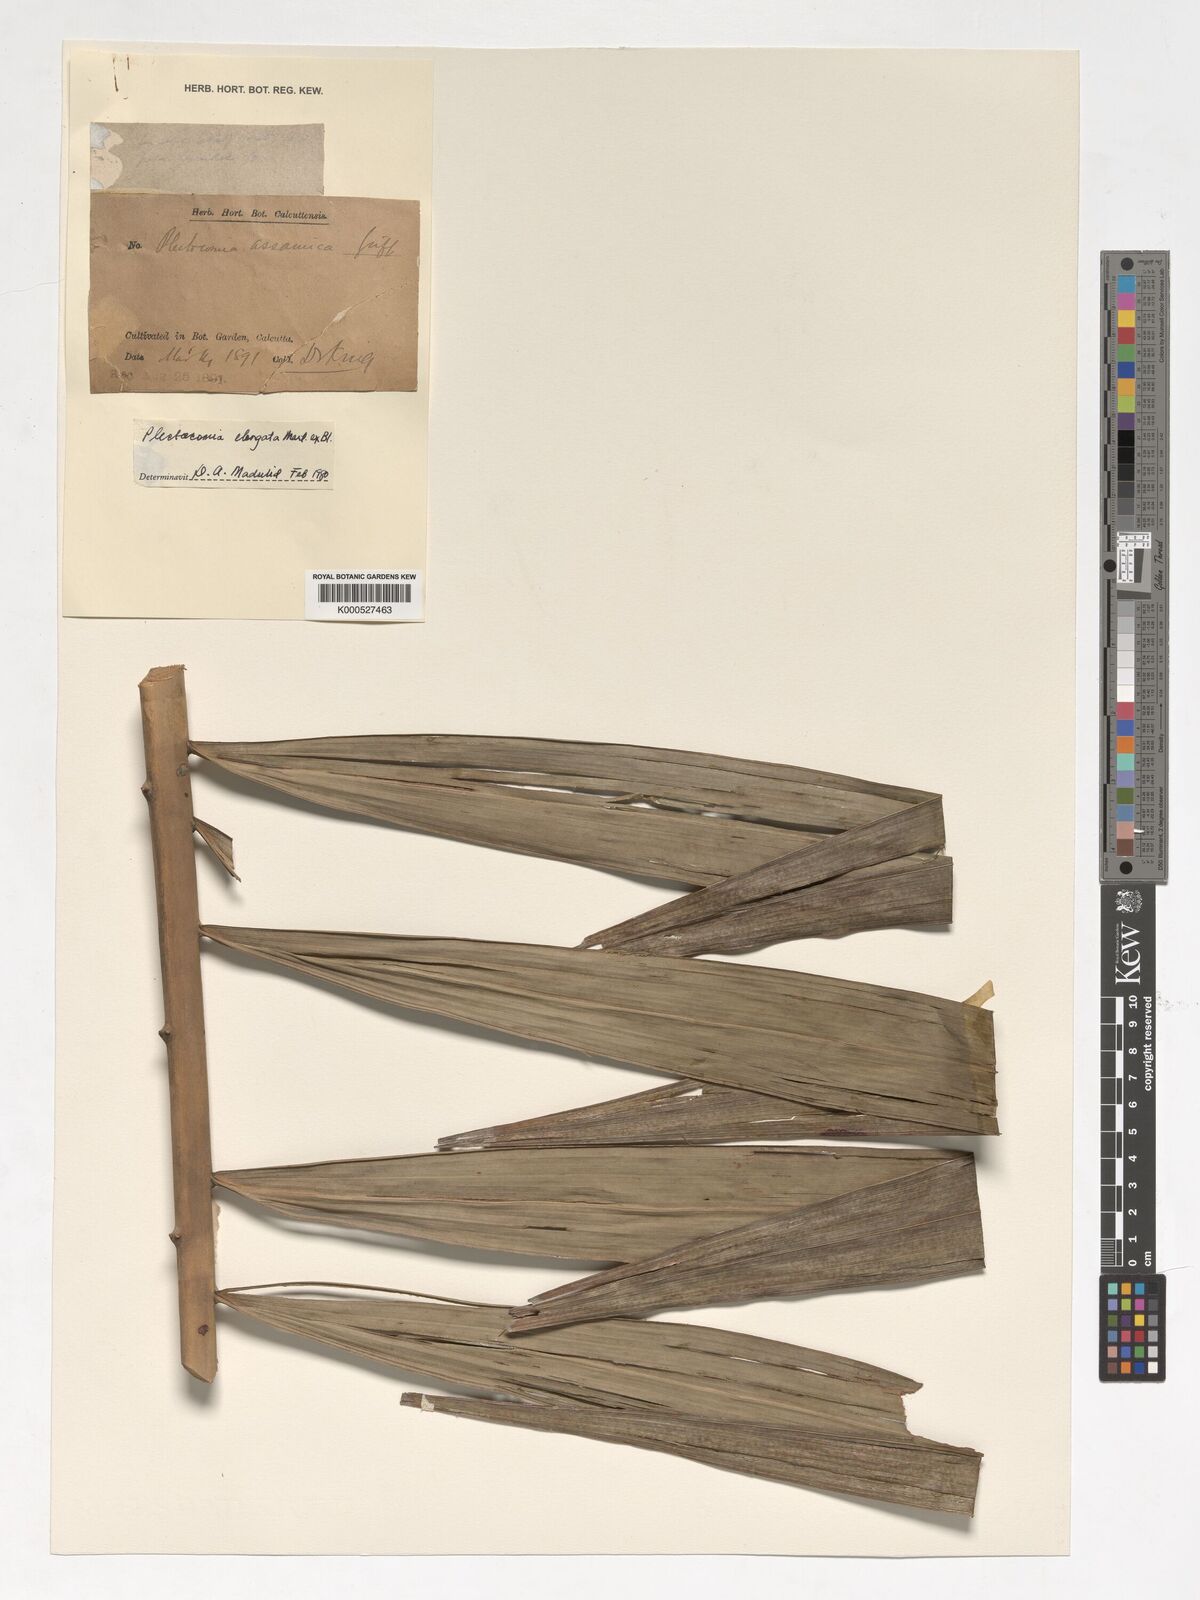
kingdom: Plantae
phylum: Tracheophyta
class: Liliopsida
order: Arecales
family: Arecaceae
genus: Plectocomia
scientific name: Plectocomia elongata
